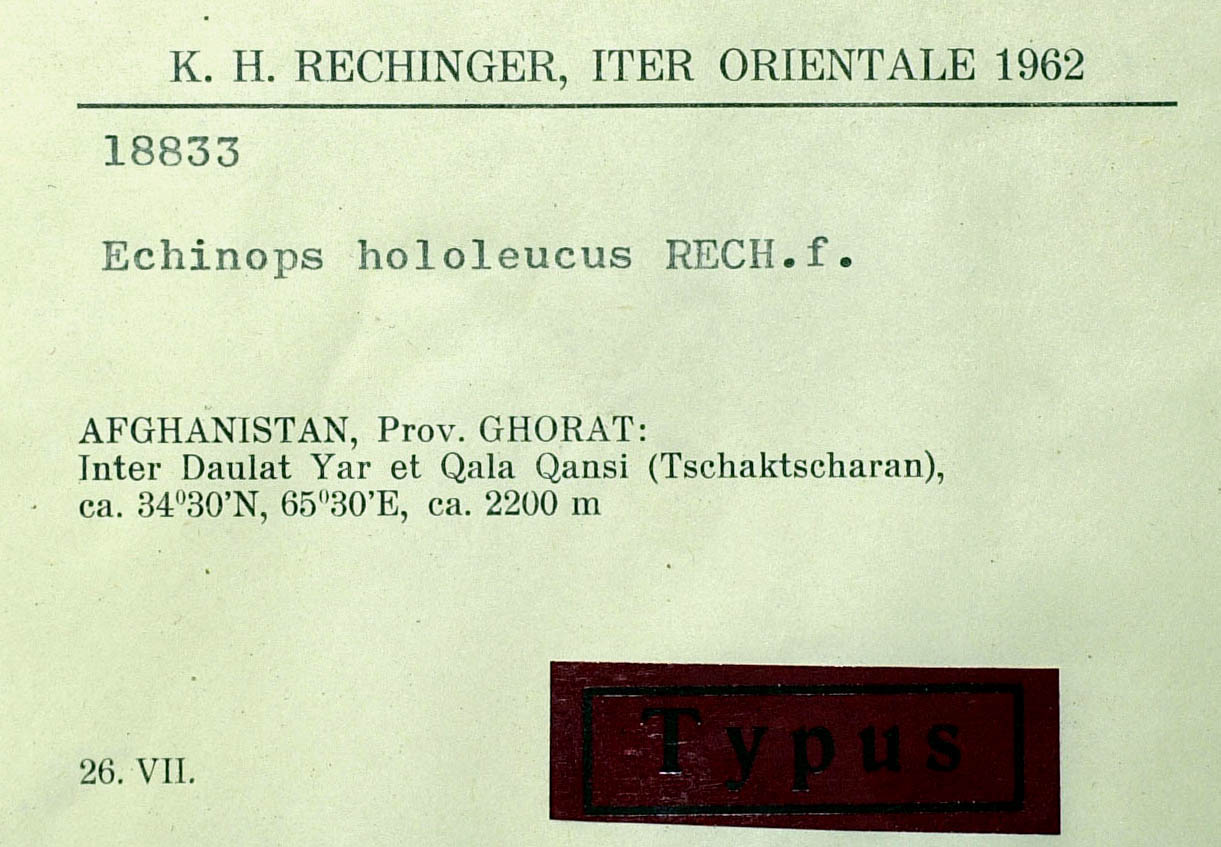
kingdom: Plantae
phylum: Tracheophyta
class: Magnoliopsida
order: Asterales
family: Asteraceae
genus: Echinops
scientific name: Echinops hololeucus
